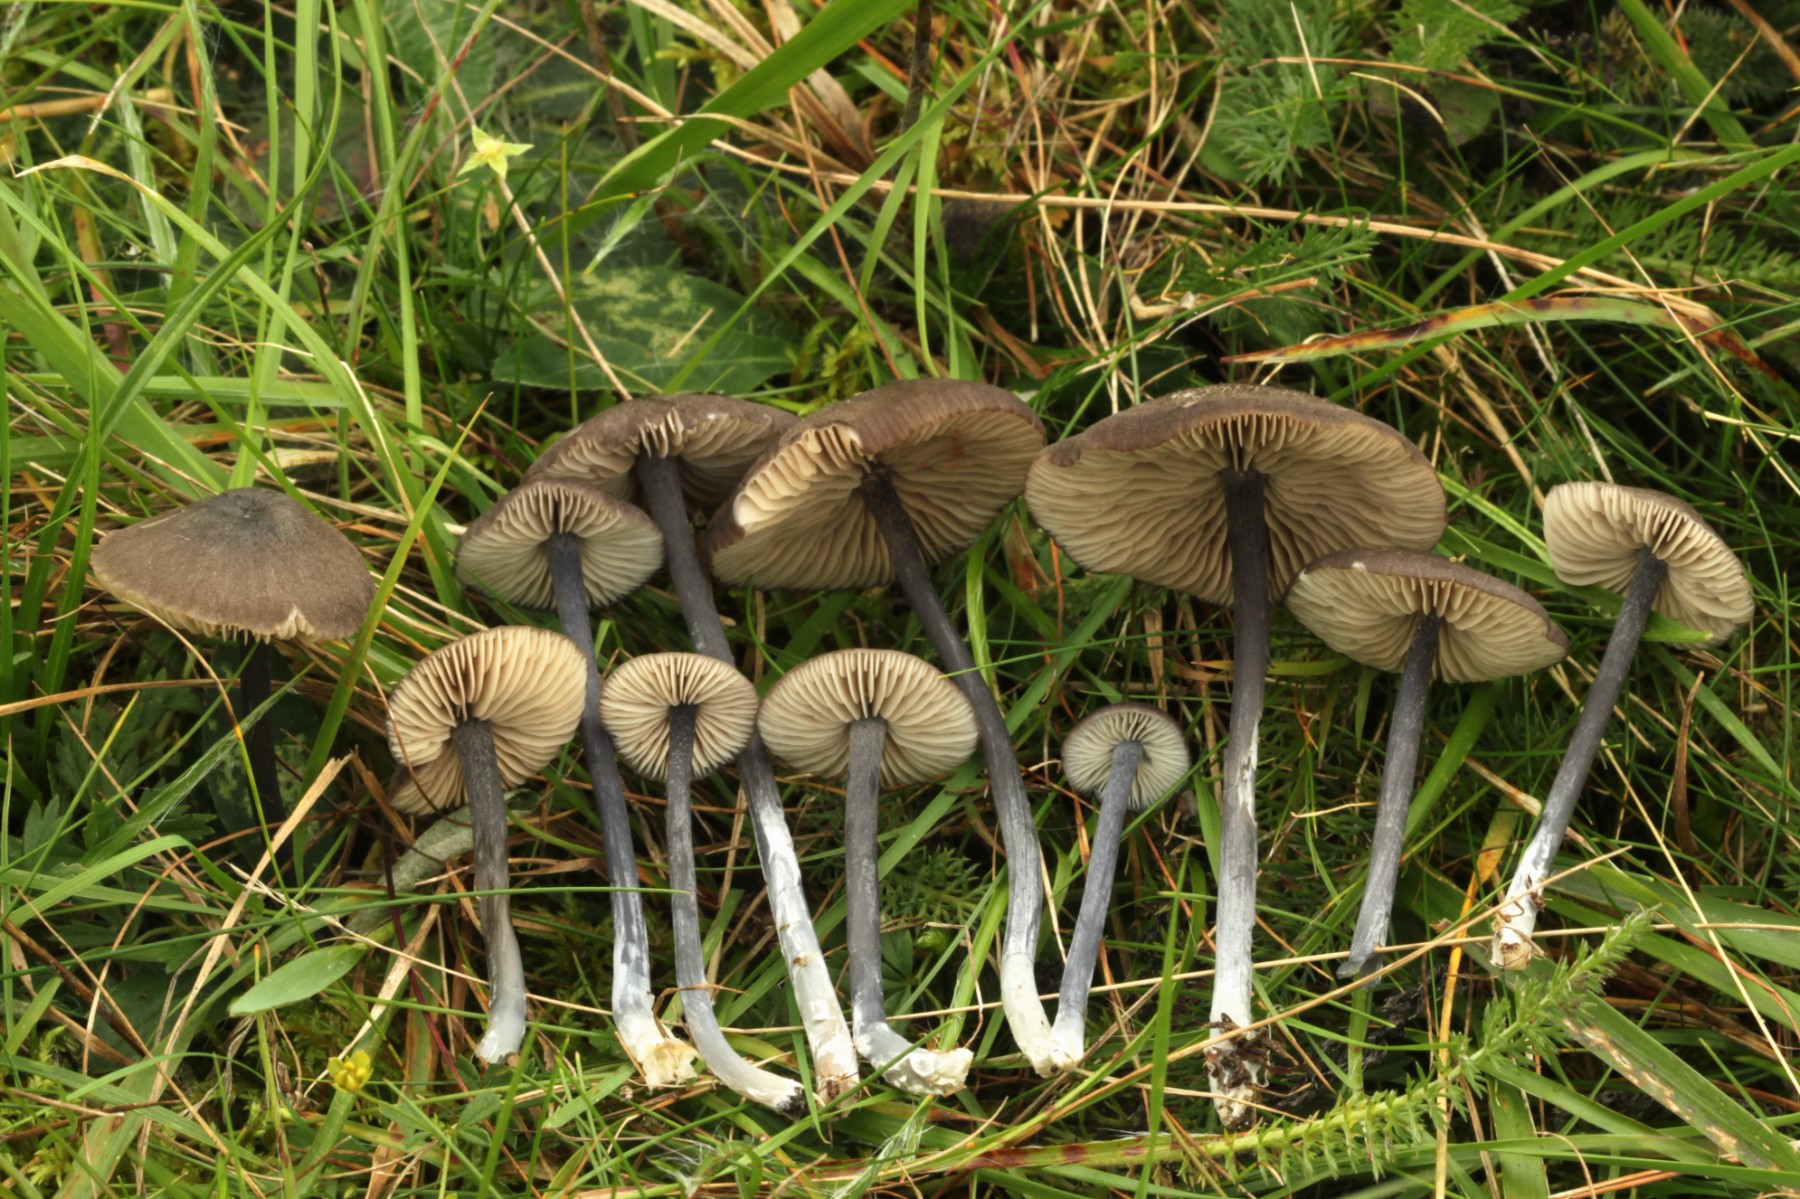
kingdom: Fungi
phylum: Basidiomycota
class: Agaricomycetes
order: Agaricales
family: Entolomataceae
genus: Entoloma
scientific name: Entoloma atrocoeruleum
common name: sortblå rødblad
